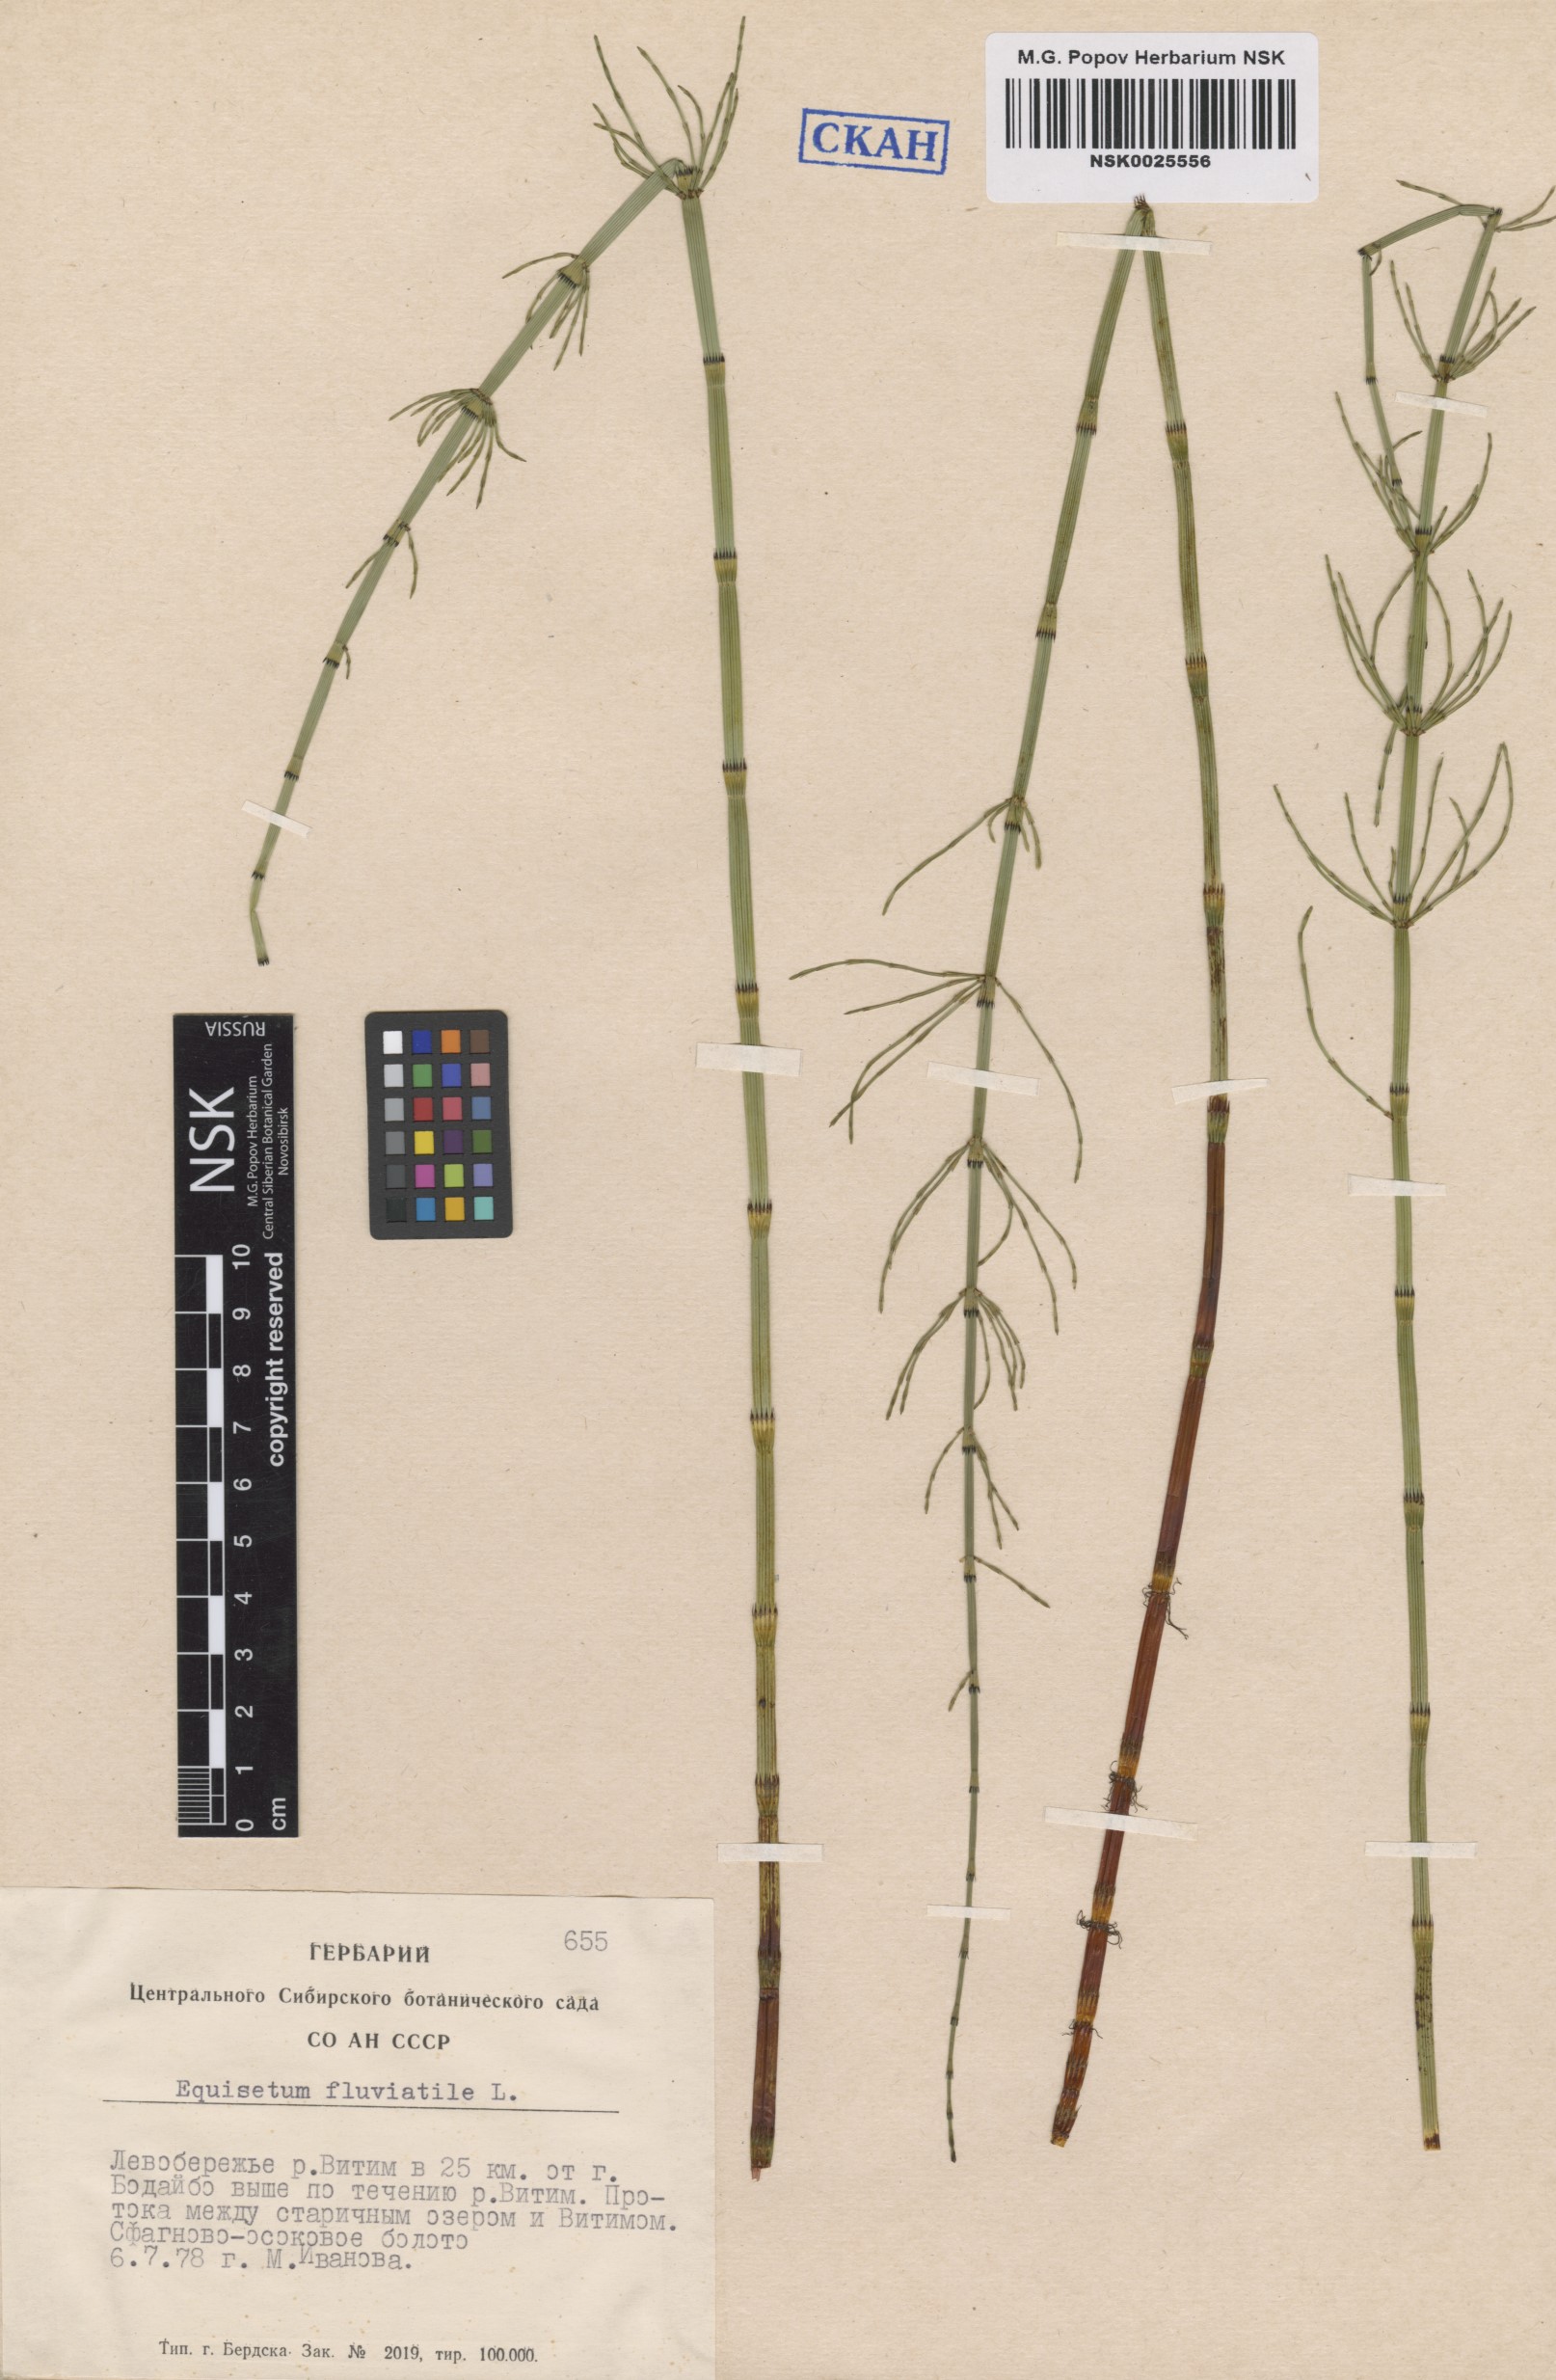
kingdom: Plantae
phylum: Tracheophyta
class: Polypodiopsida
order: Equisetales
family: Equisetaceae
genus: Equisetum
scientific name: Equisetum fluviatile
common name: Water horsetail
